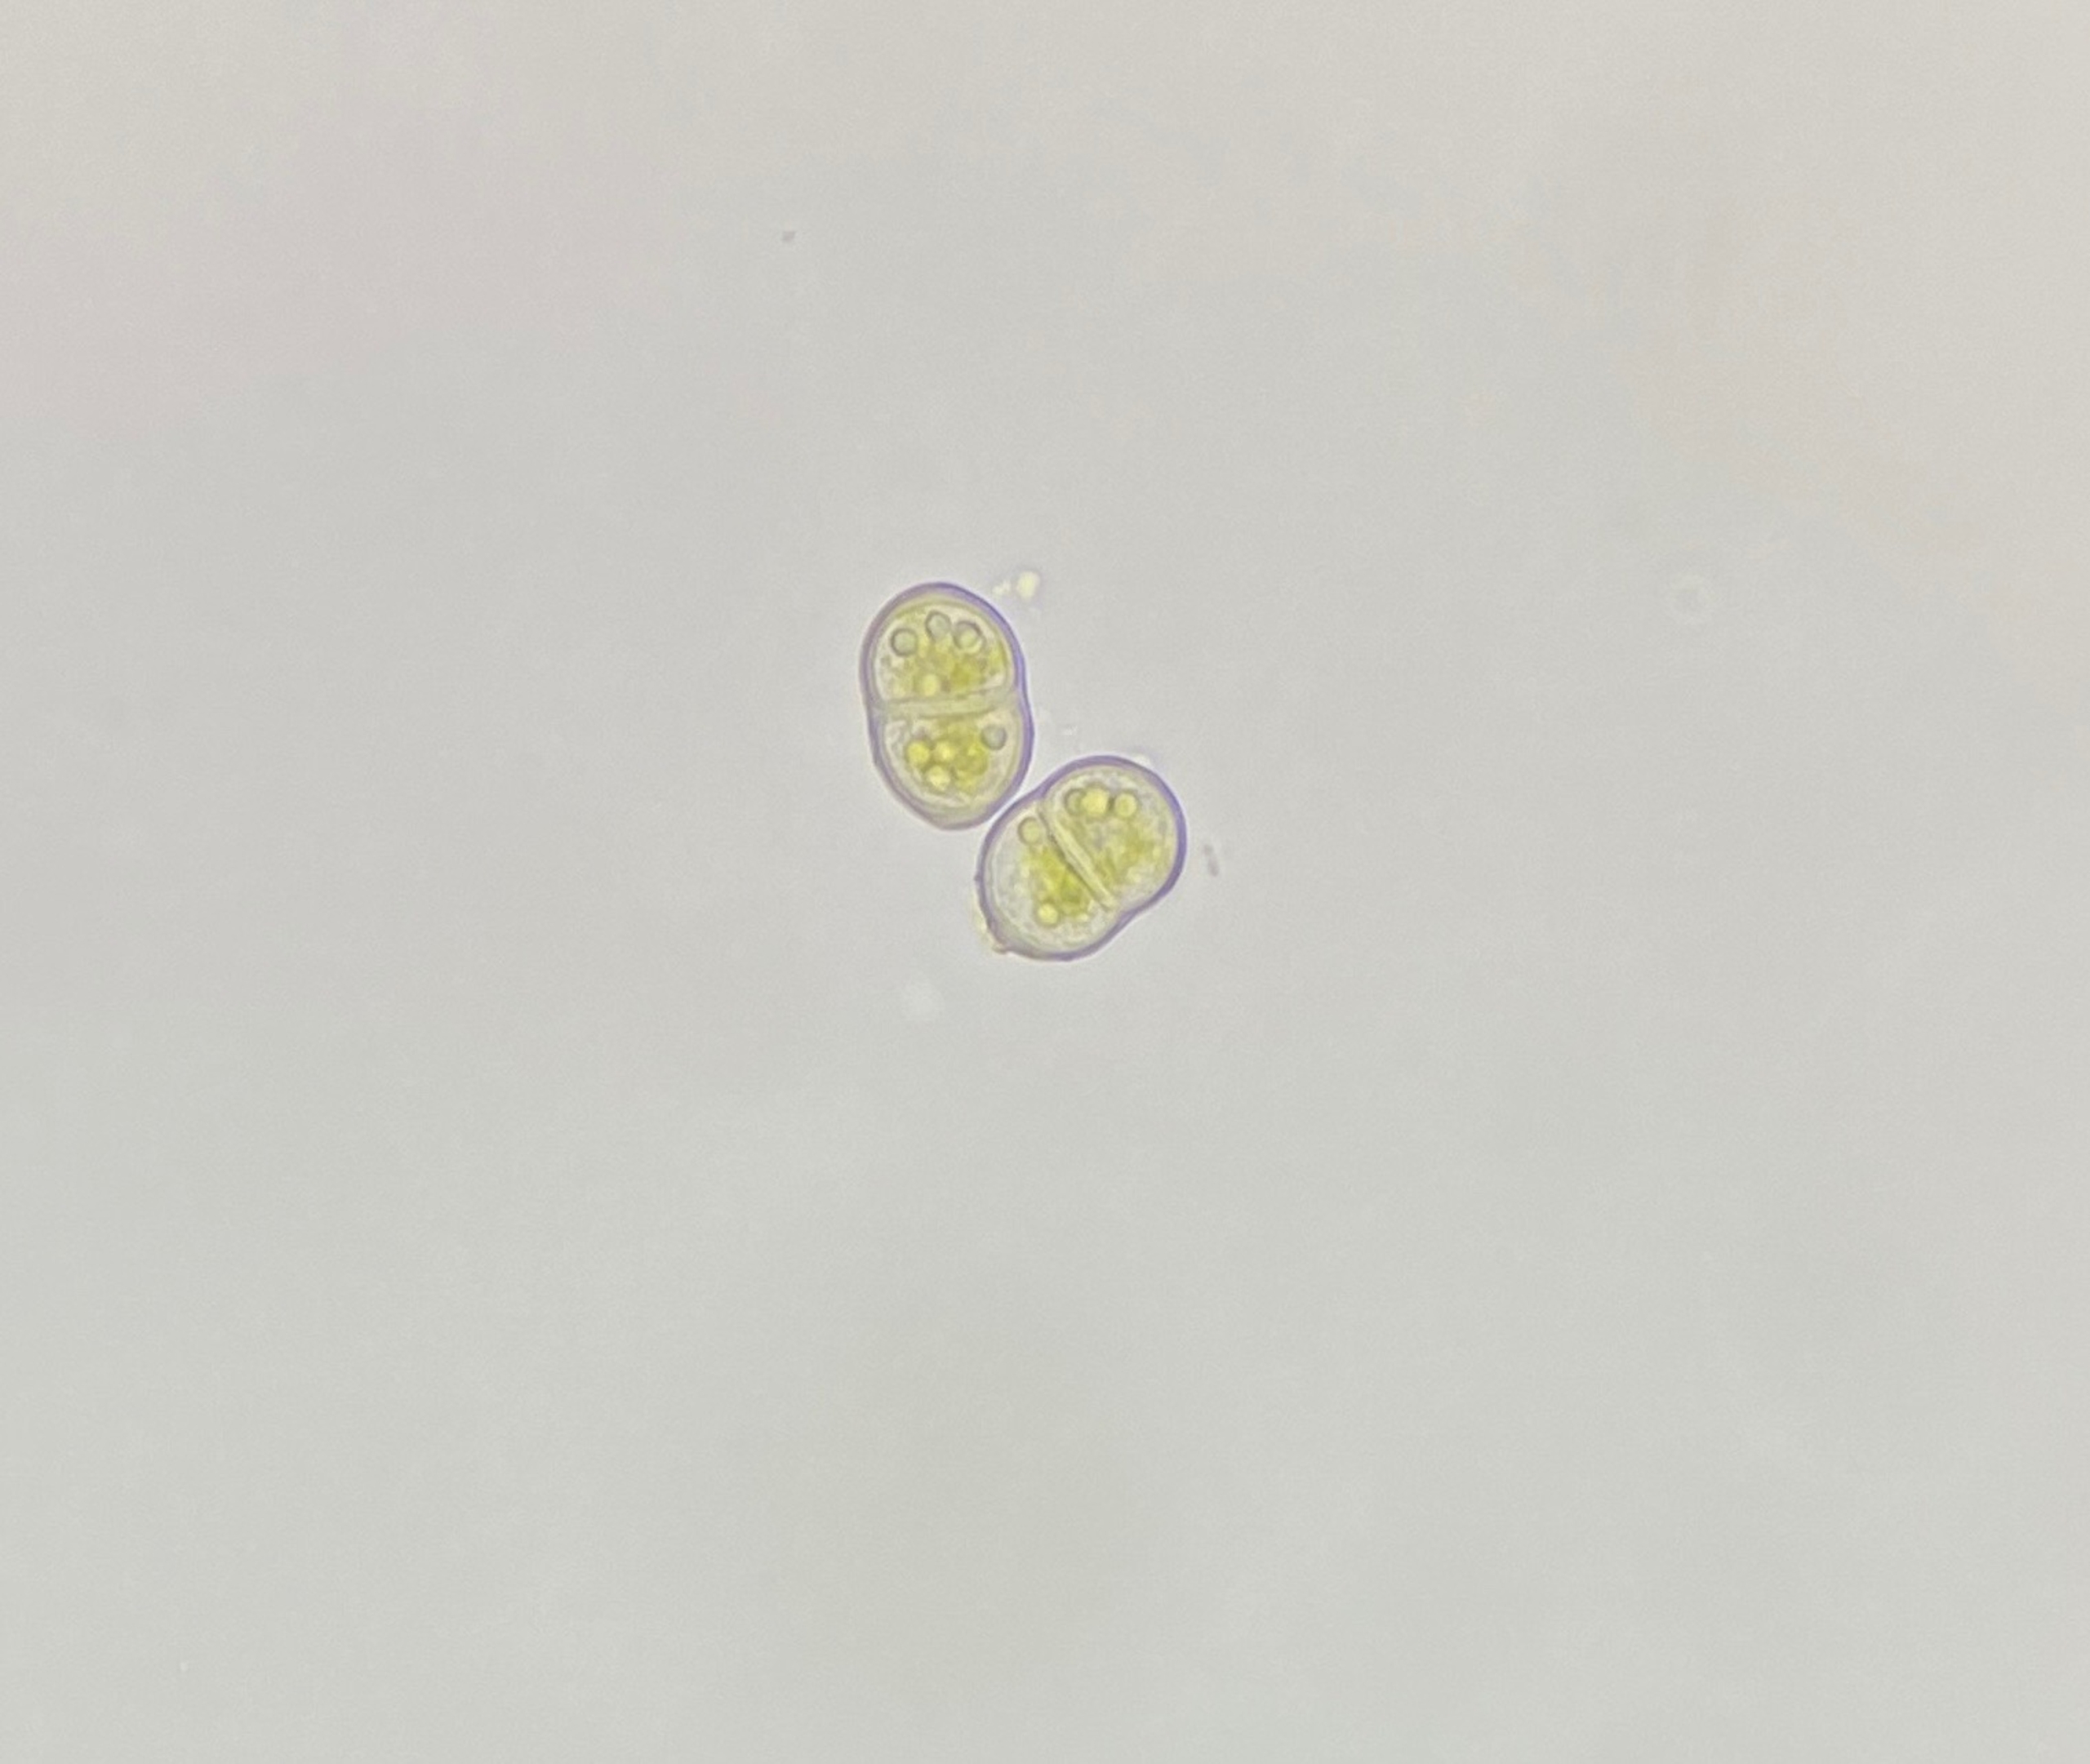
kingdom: Plantae
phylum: Marchantiophyta
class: Jungermanniopsida
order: Jungermanniales
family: Cephaloziaceae
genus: Odontoschisma
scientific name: Odontoschisma denudatum
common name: Tørve-flagelmos
